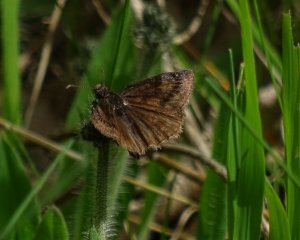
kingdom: Animalia
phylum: Arthropoda
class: Insecta
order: Lepidoptera
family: Hesperiidae
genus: Gesta
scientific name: Gesta
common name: Wild Indigo Duskywing
